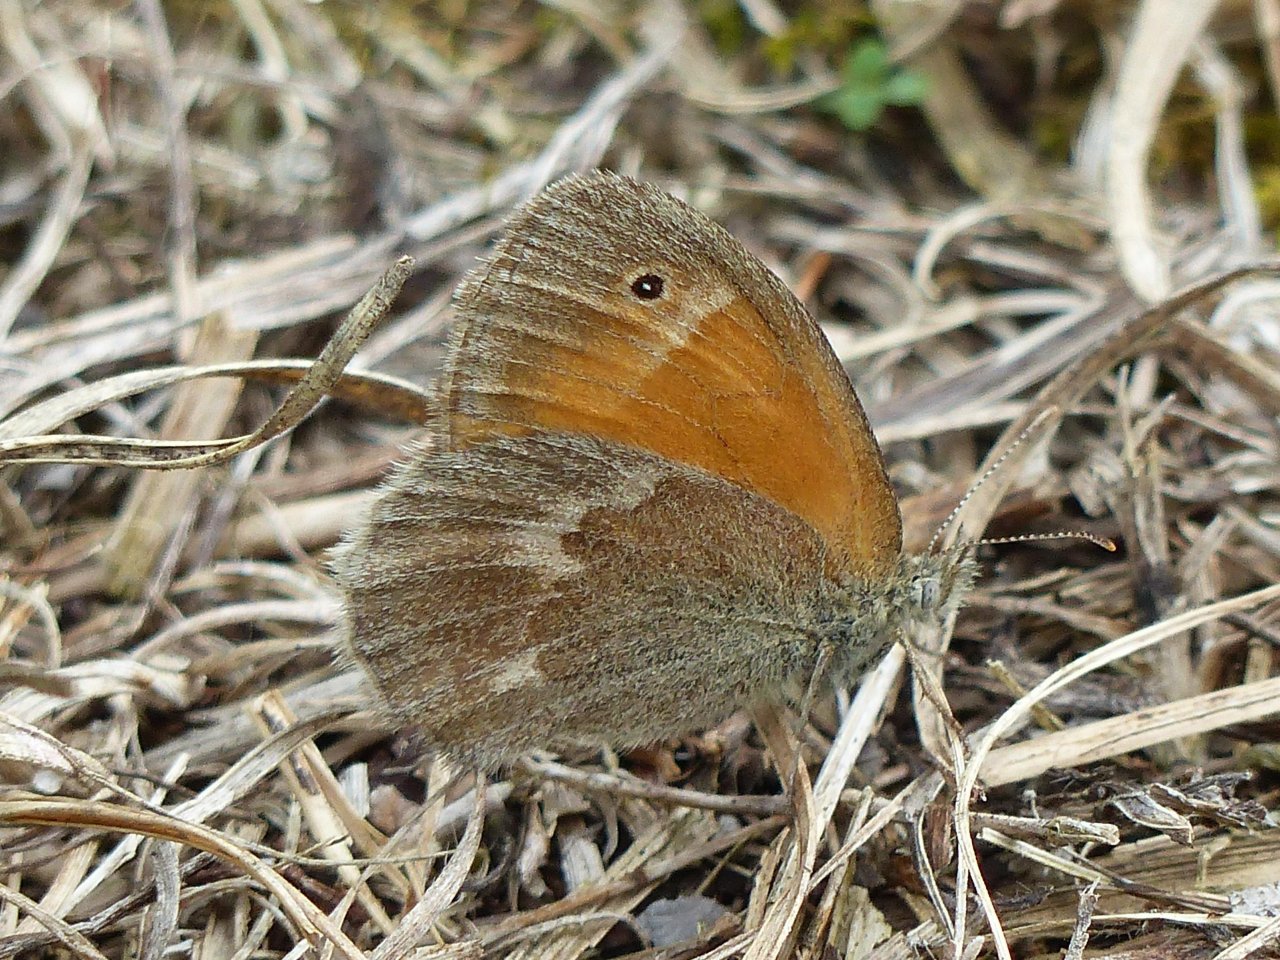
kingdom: Animalia
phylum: Arthropoda
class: Insecta
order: Lepidoptera
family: Nymphalidae
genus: Coenonympha
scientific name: Coenonympha tullia
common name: Large Heath
